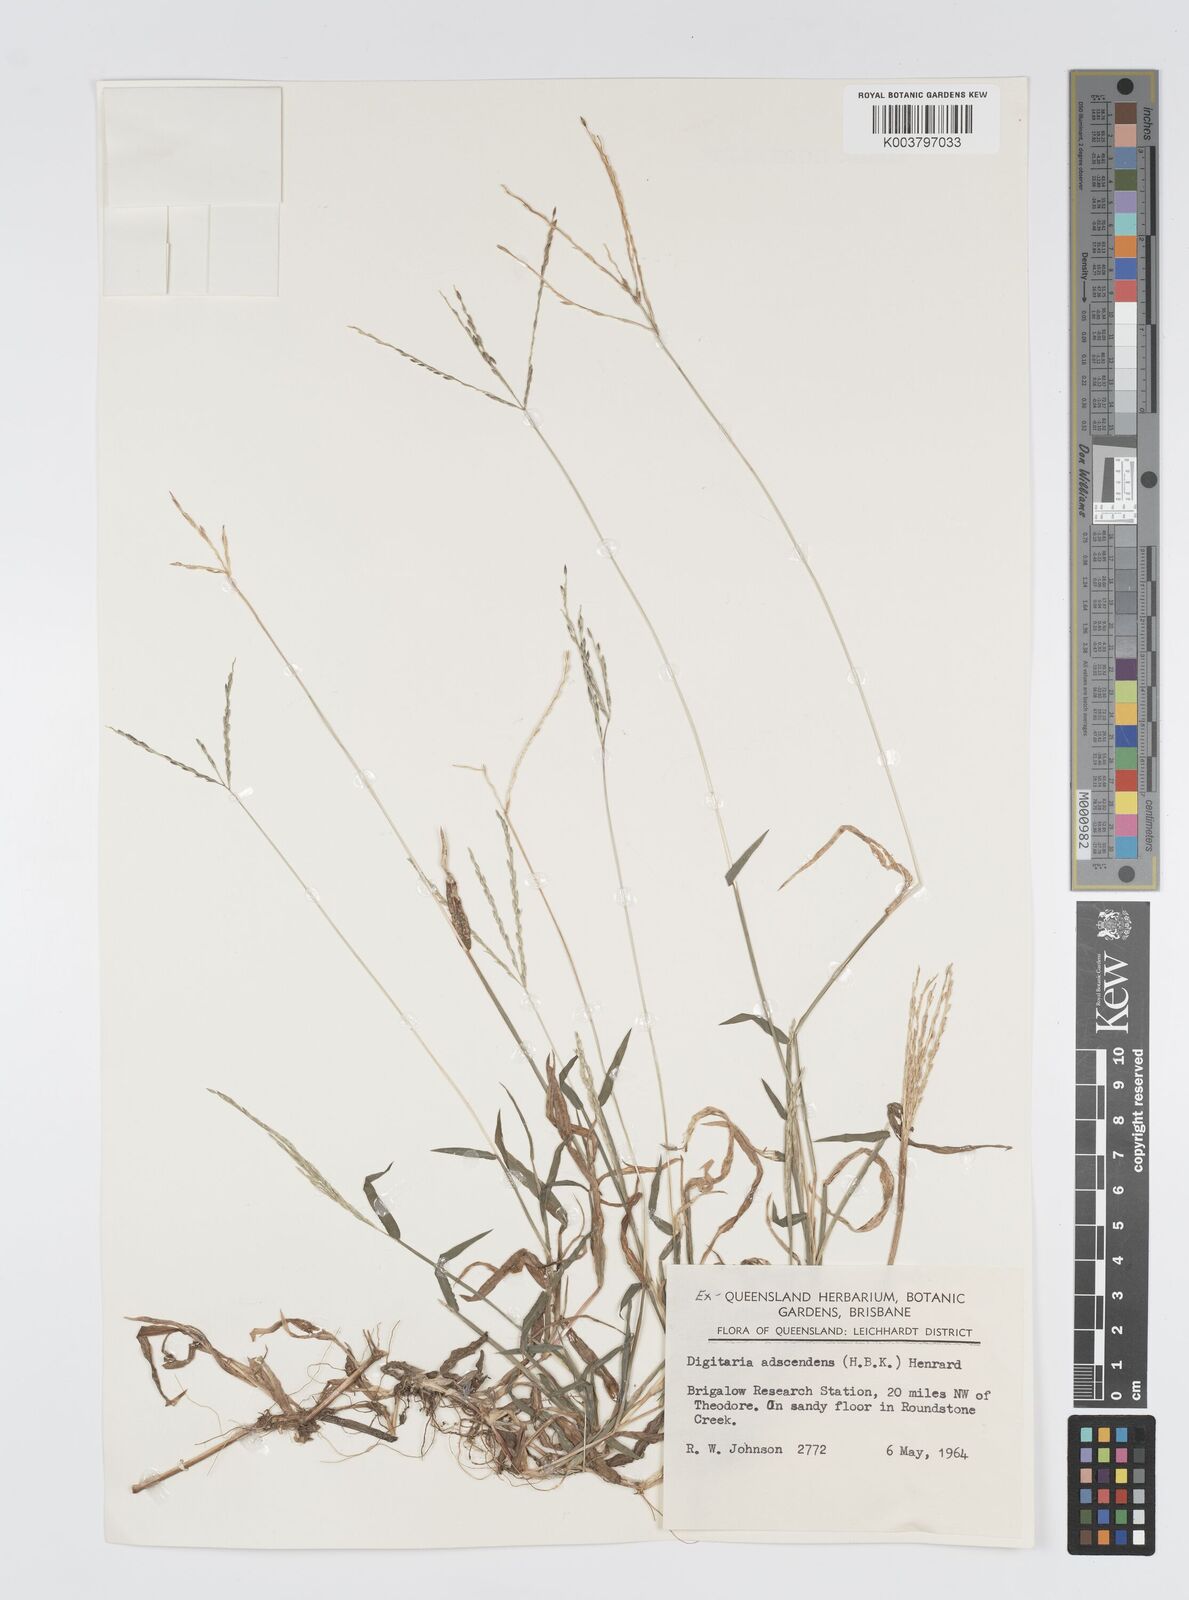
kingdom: Plantae
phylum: Tracheophyta
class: Liliopsida
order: Poales
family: Poaceae
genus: Digitaria
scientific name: Digitaria ciliaris
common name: Tropical finger-grass
